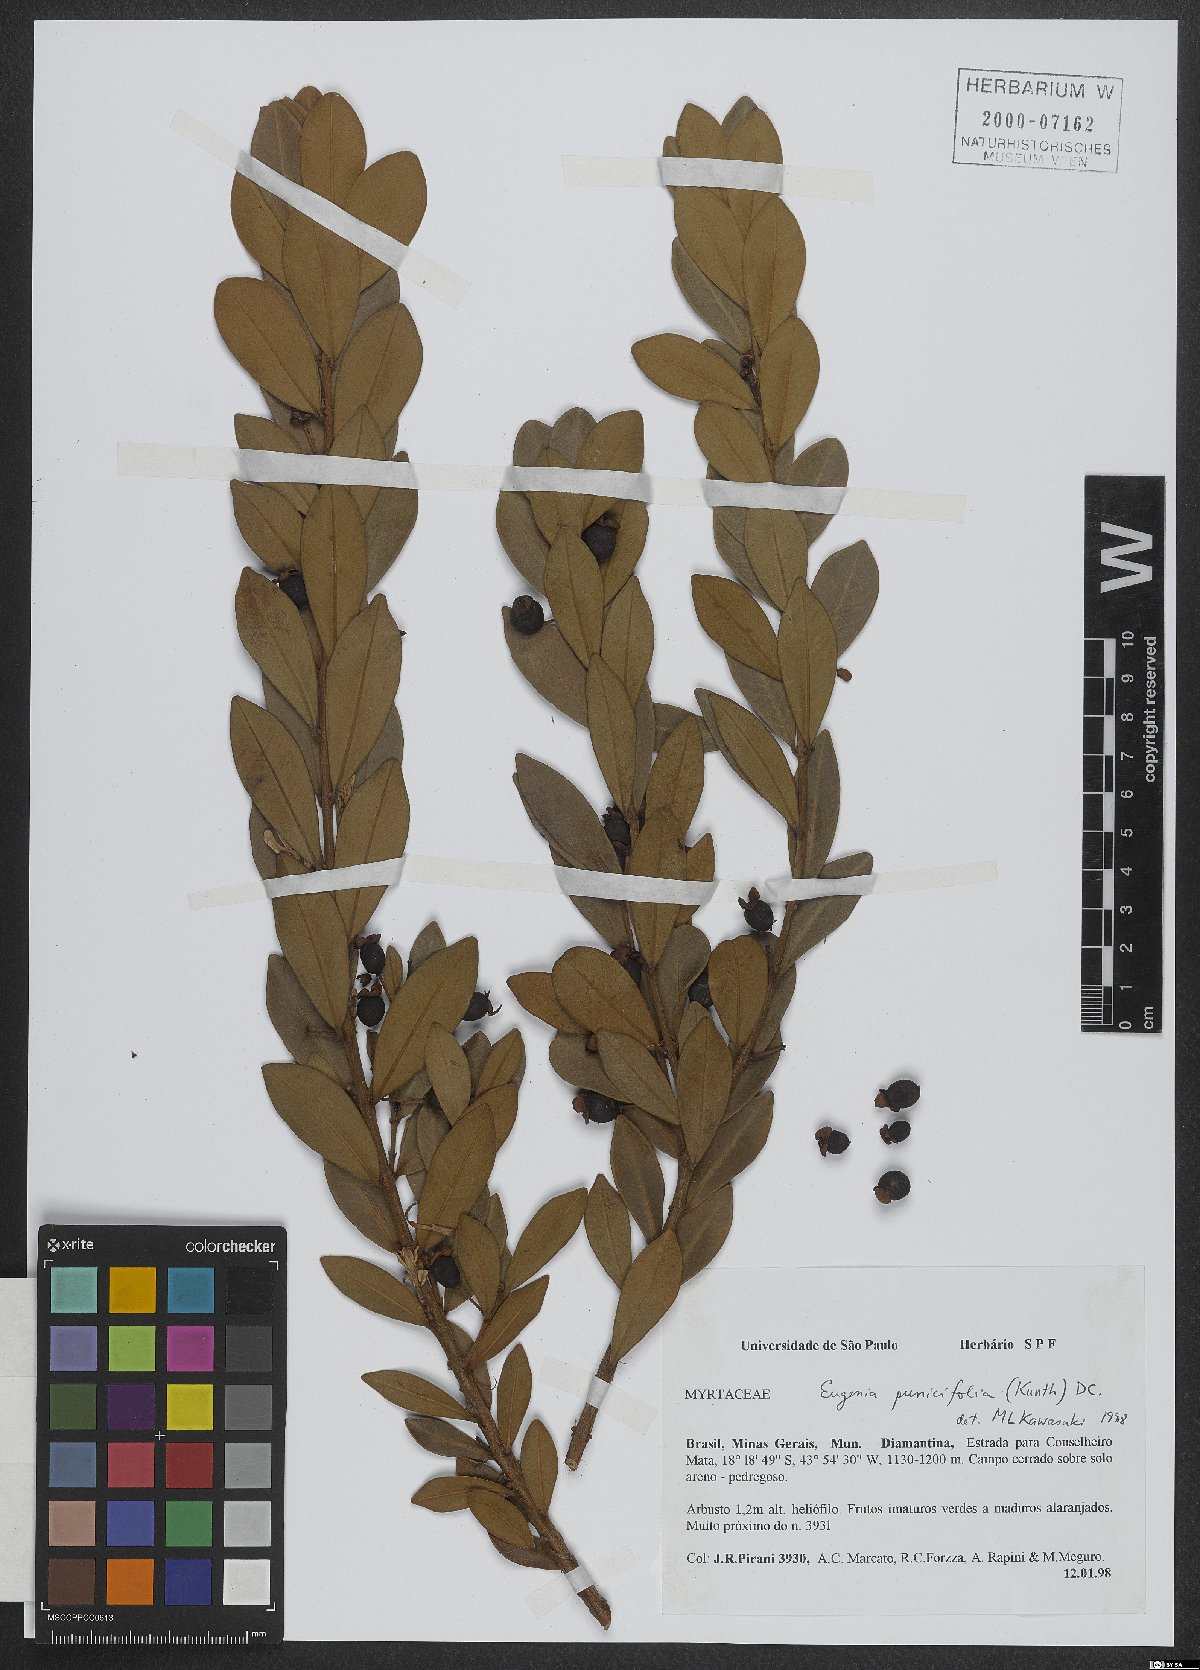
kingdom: Plantae
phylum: Tracheophyta
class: Magnoliopsida
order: Myrtales
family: Myrtaceae
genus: Eugenia
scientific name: Eugenia punicifolia
